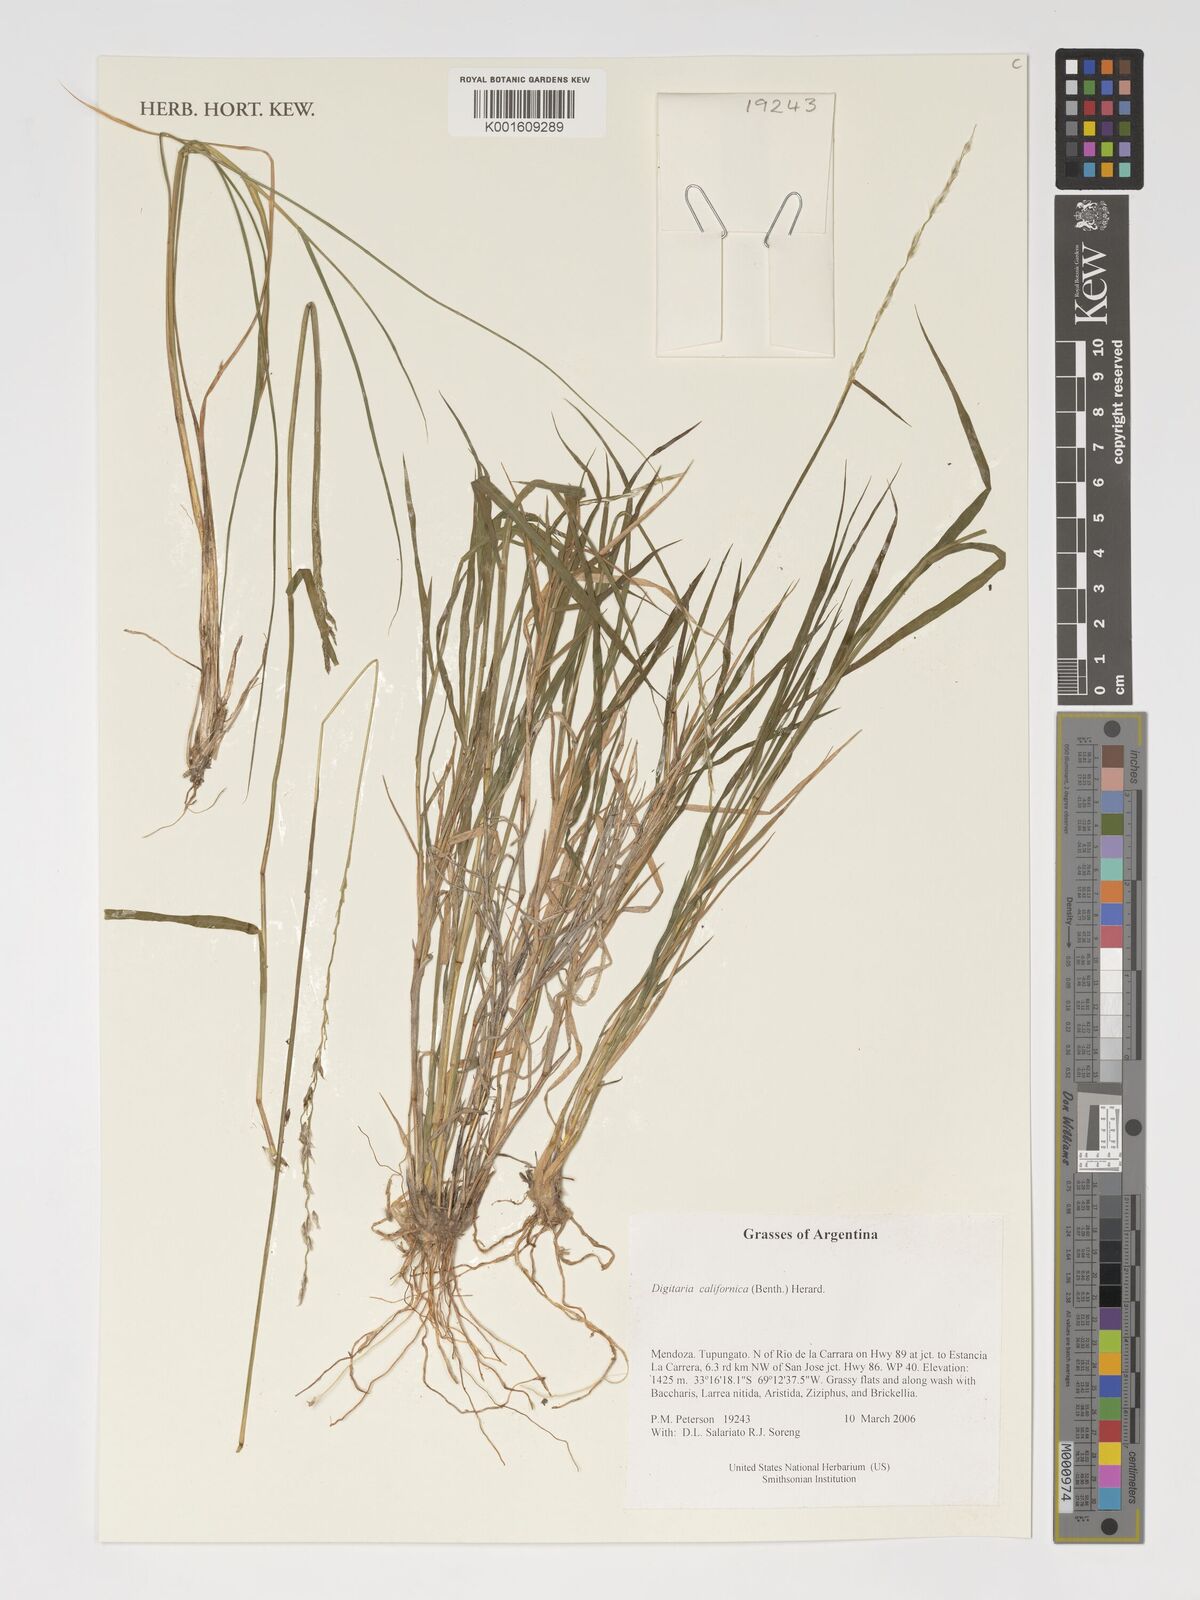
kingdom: Plantae
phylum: Tracheophyta
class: Liliopsida
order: Poales
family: Poaceae
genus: Digitaria
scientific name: Digitaria californica
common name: Arizona cottontop
